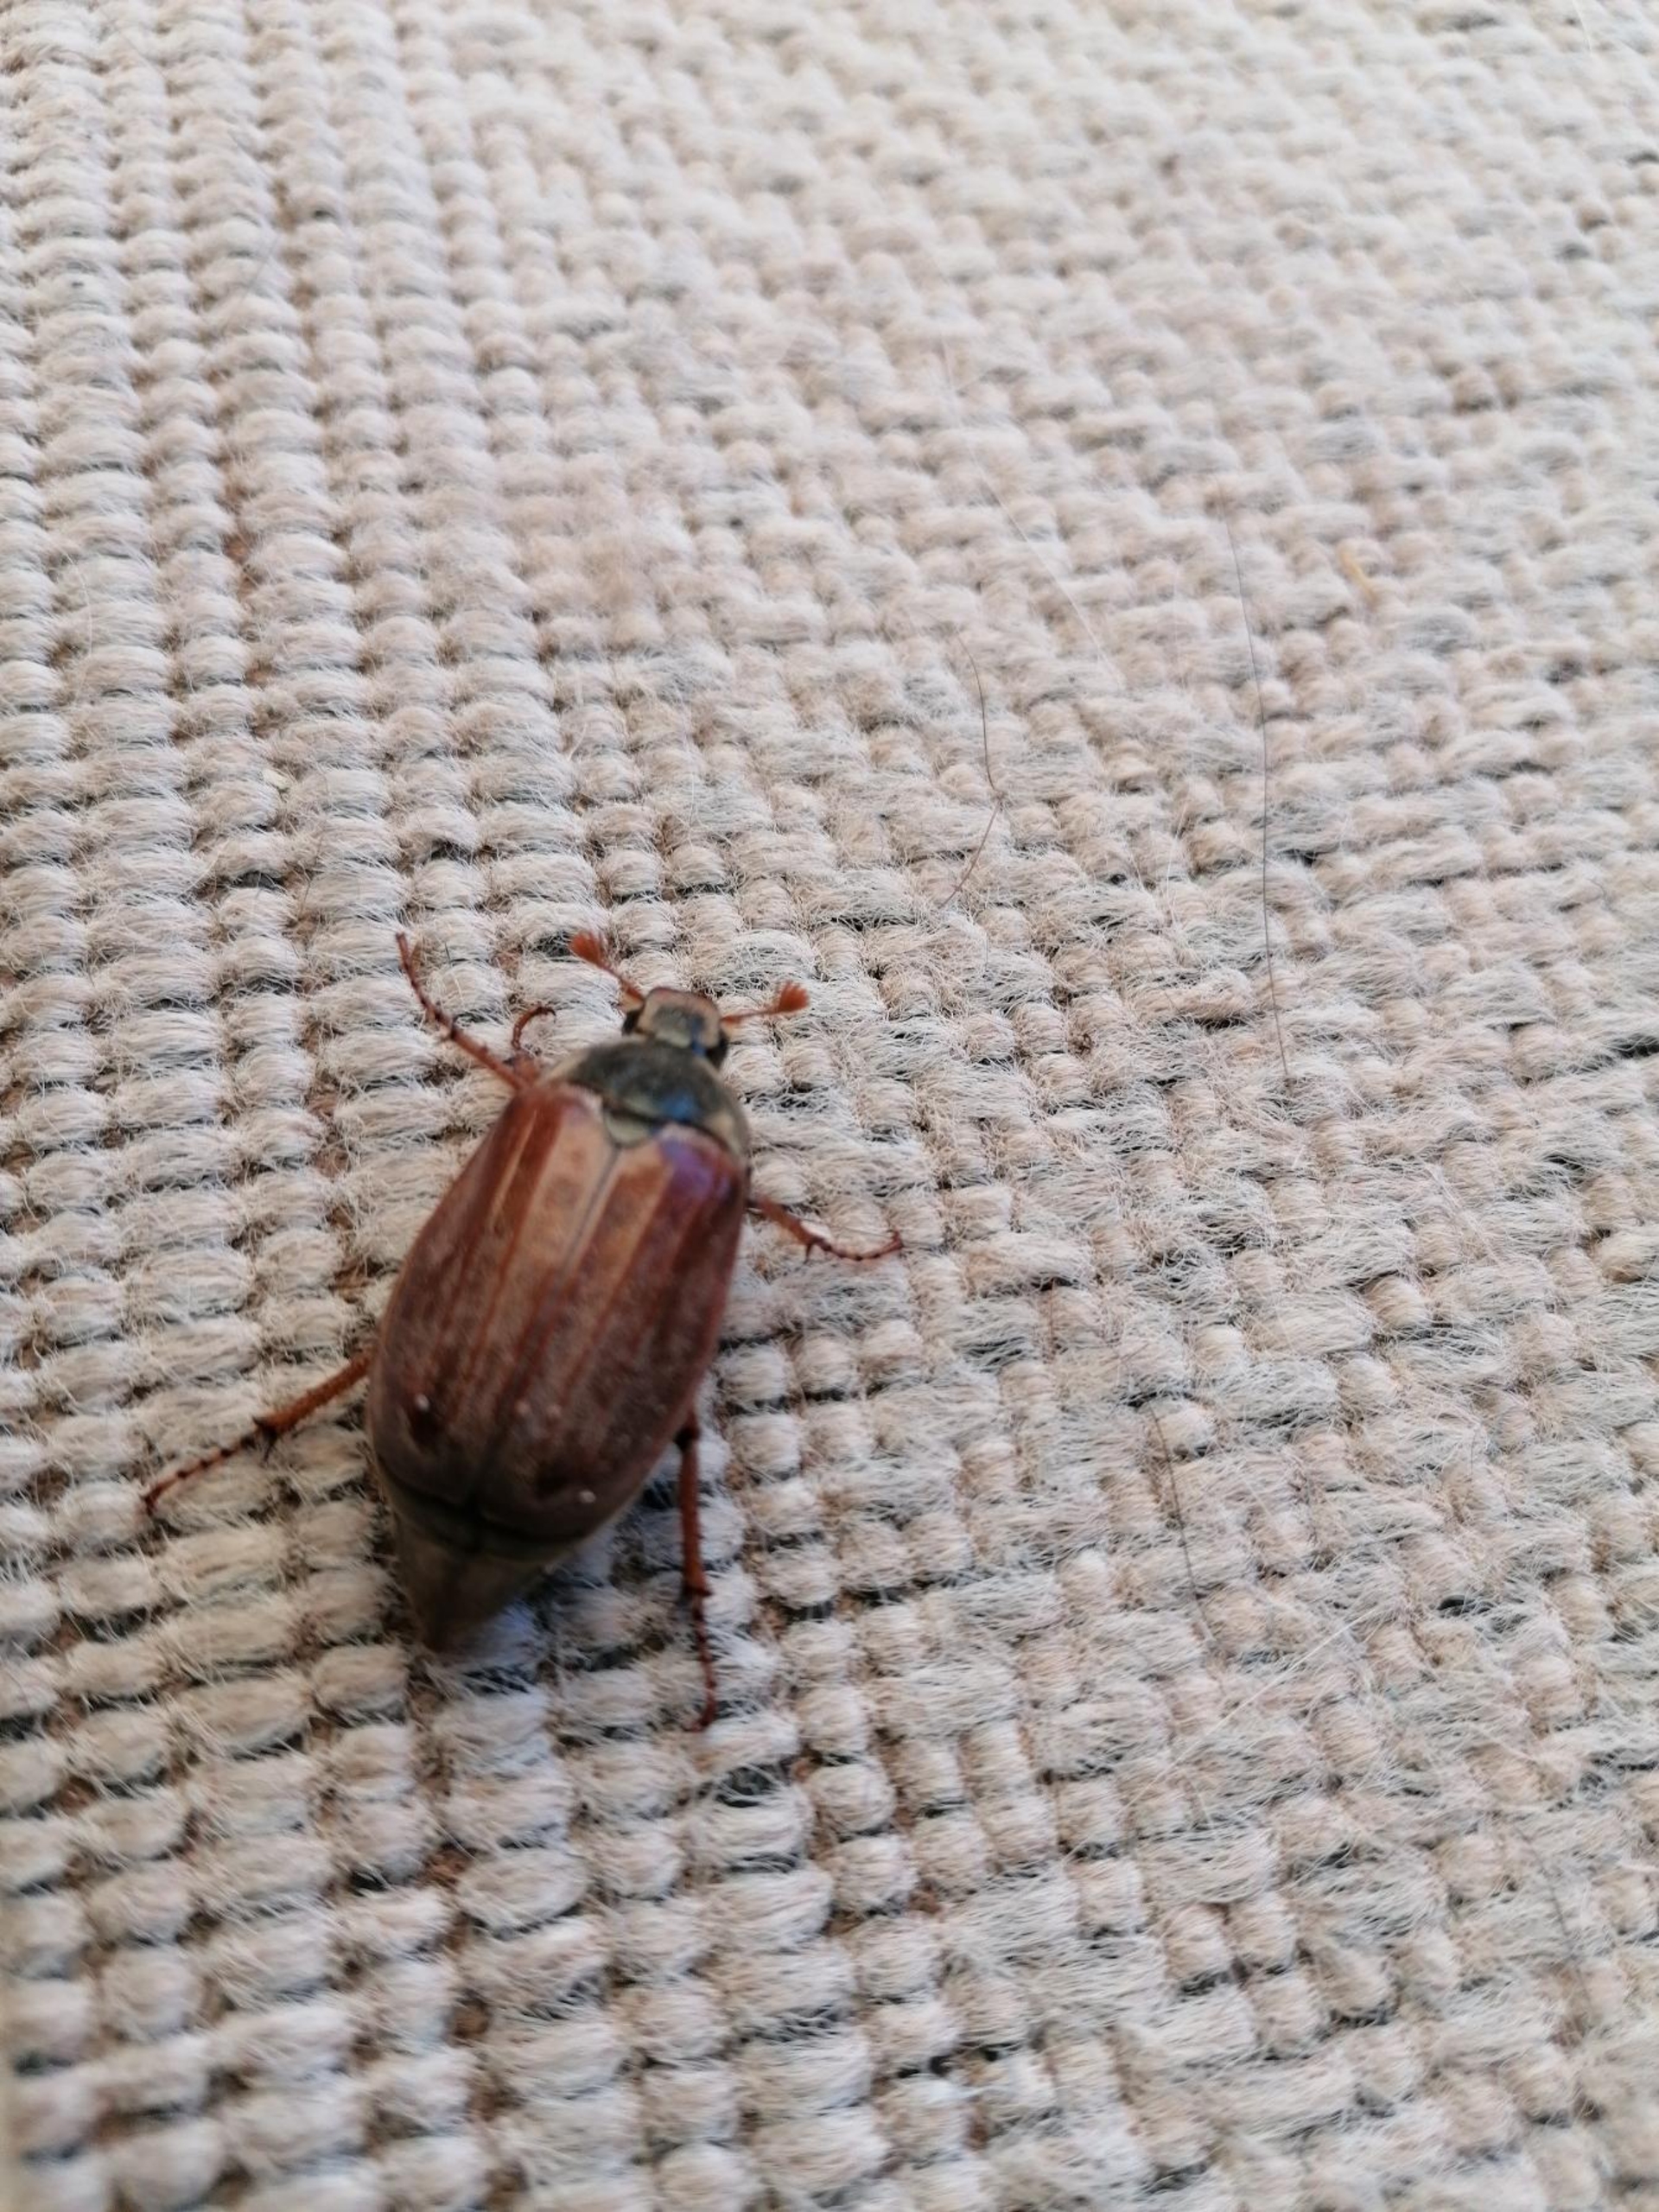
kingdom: Animalia
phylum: Arthropoda
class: Insecta
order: Coleoptera
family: Scarabaeidae
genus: Melolontha
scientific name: Melolontha melolontha
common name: Almindelig oldenborre
